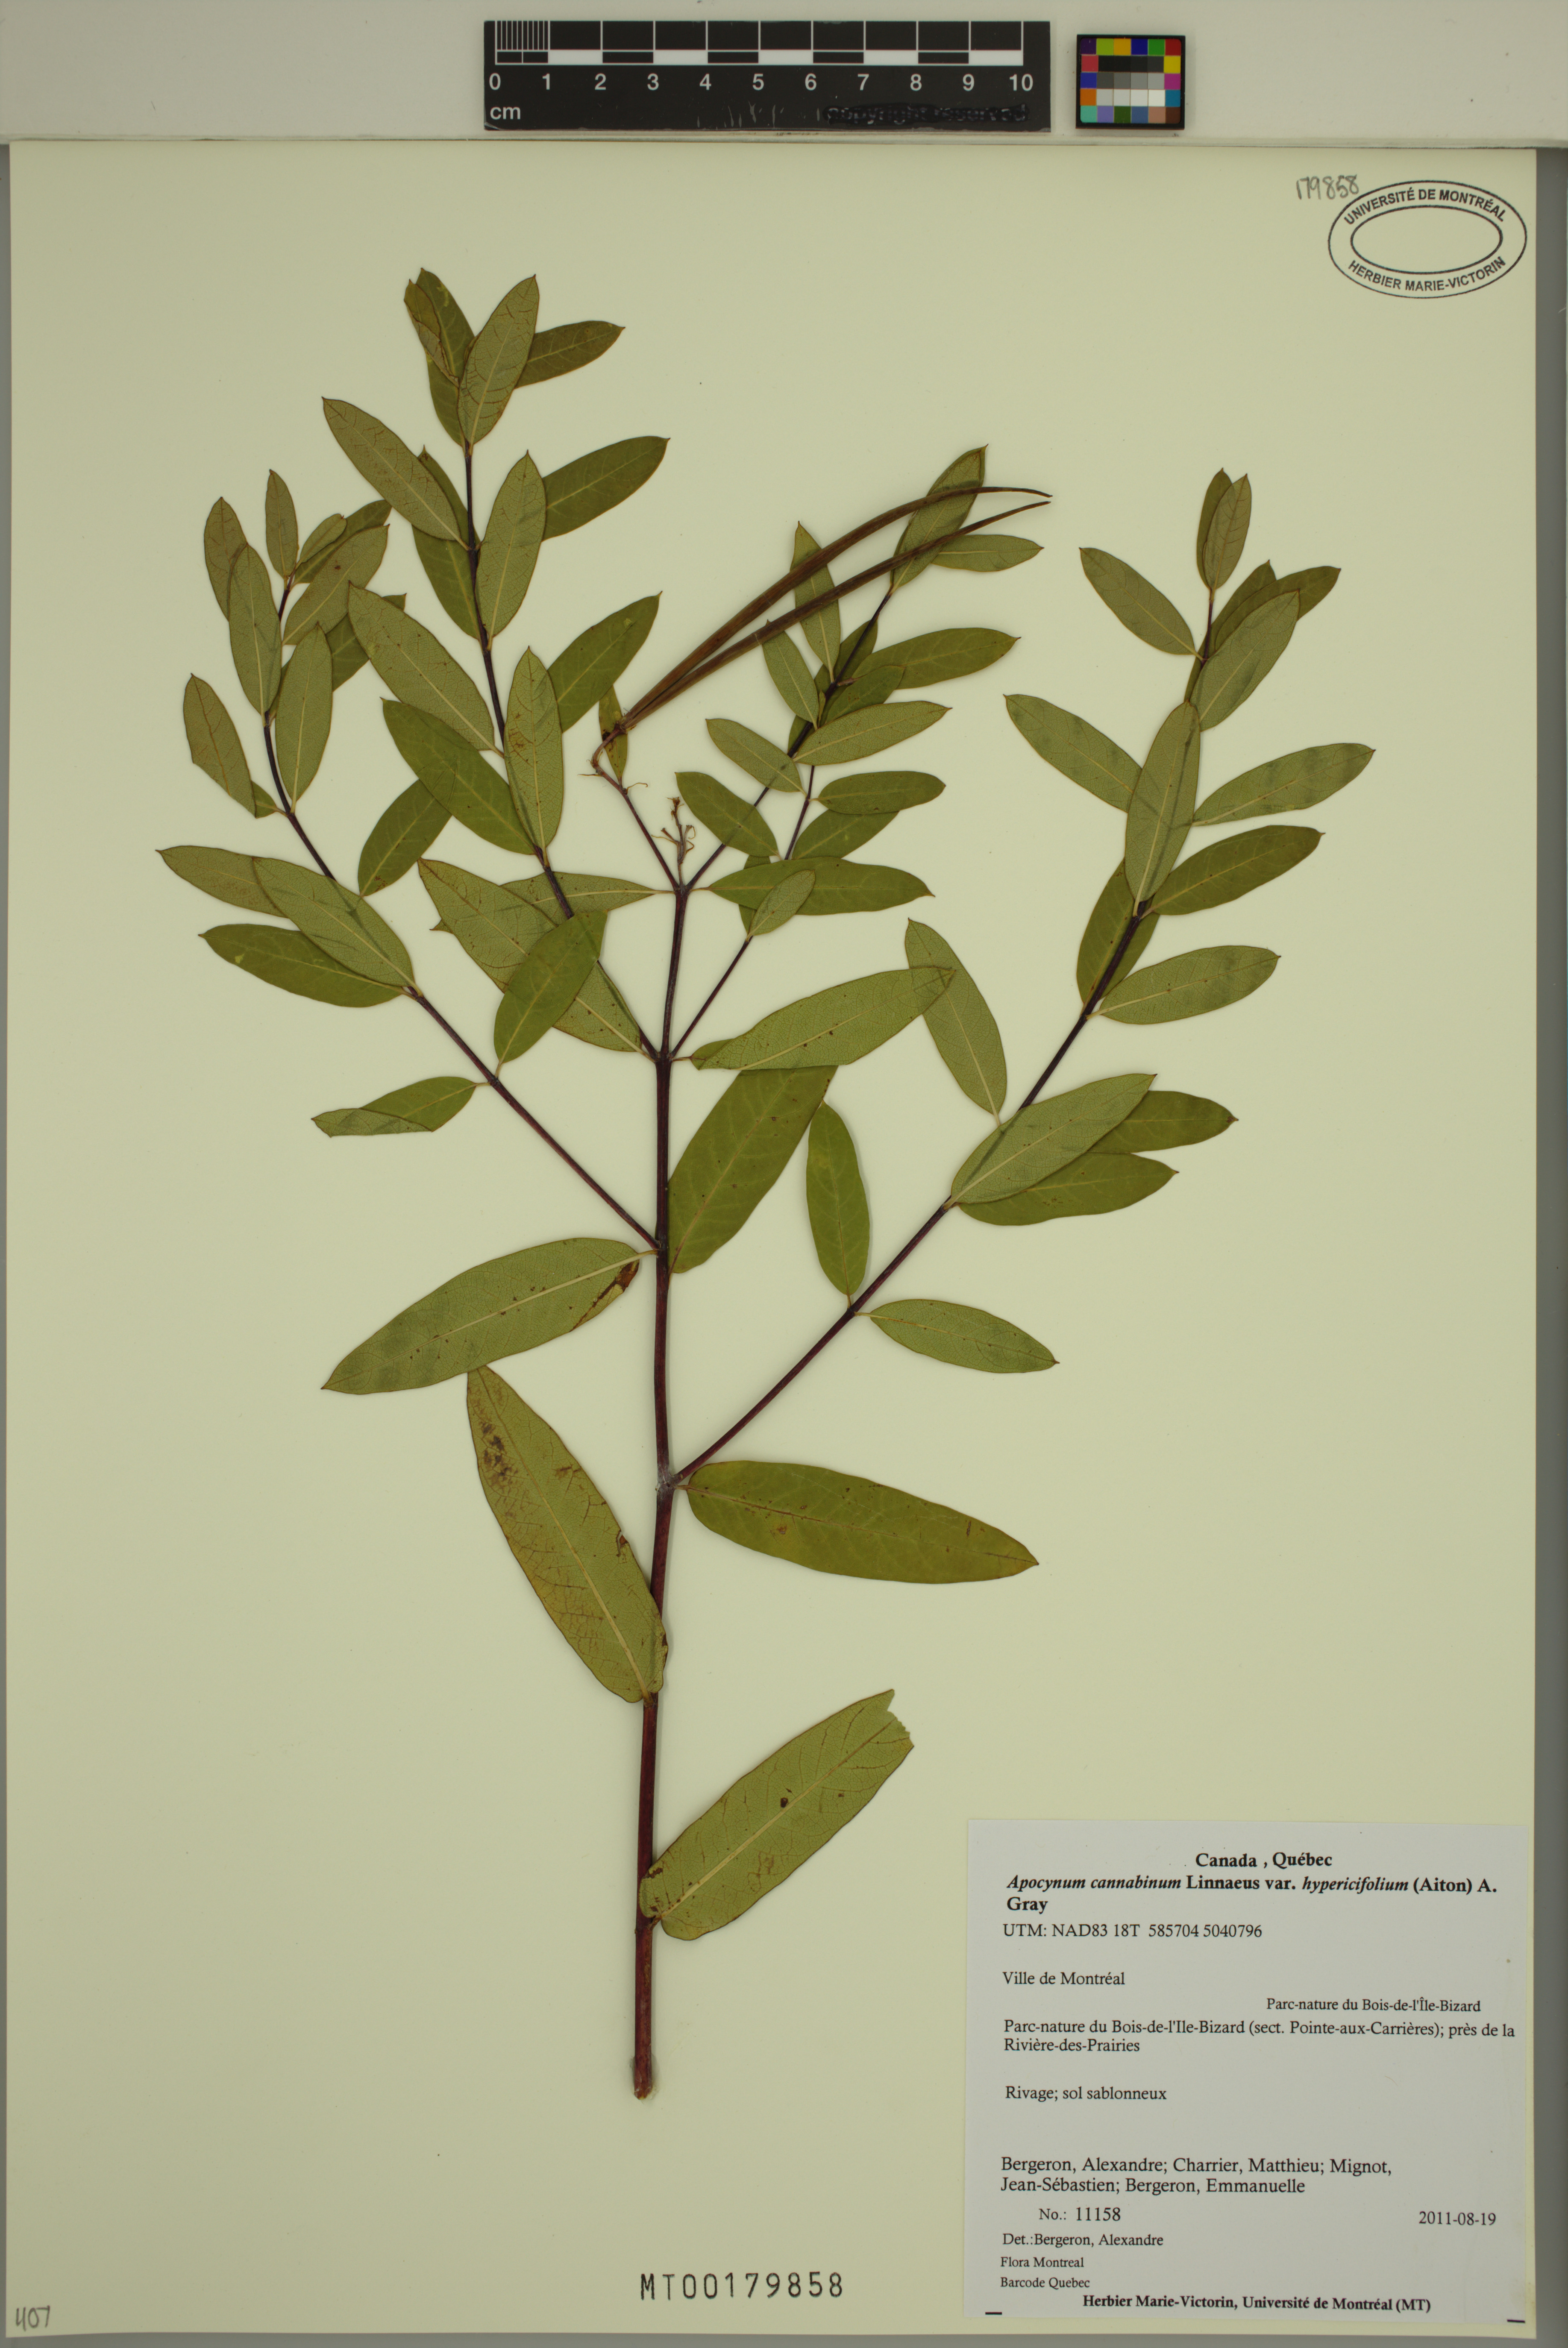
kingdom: Plantae
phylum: Tracheophyta
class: Magnoliopsida
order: Gentianales
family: Apocynaceae
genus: Apocynum
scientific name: Apocynum cannabinum
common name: Hemp dogbane
